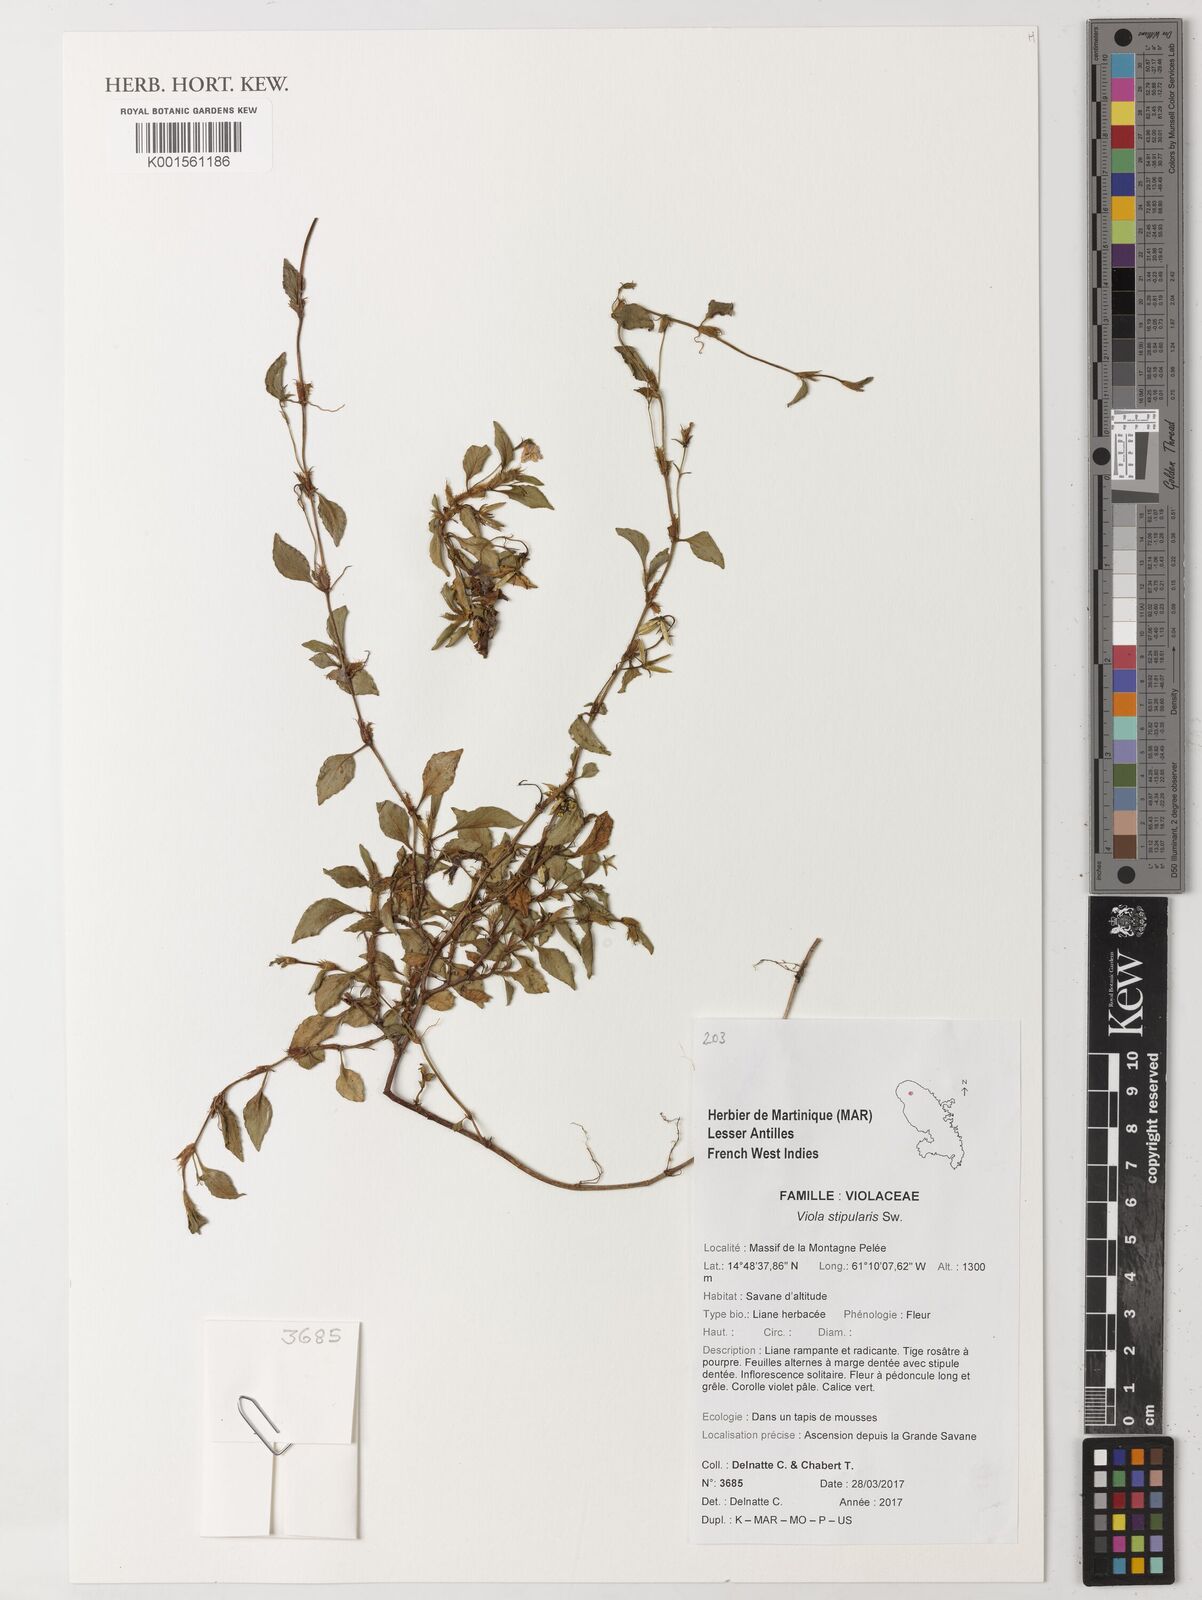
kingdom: Plantae
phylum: Tracheophyta
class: Magnoliopsida
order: Malpighiales
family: Violaceae
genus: Viola
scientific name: Viola stipularis
